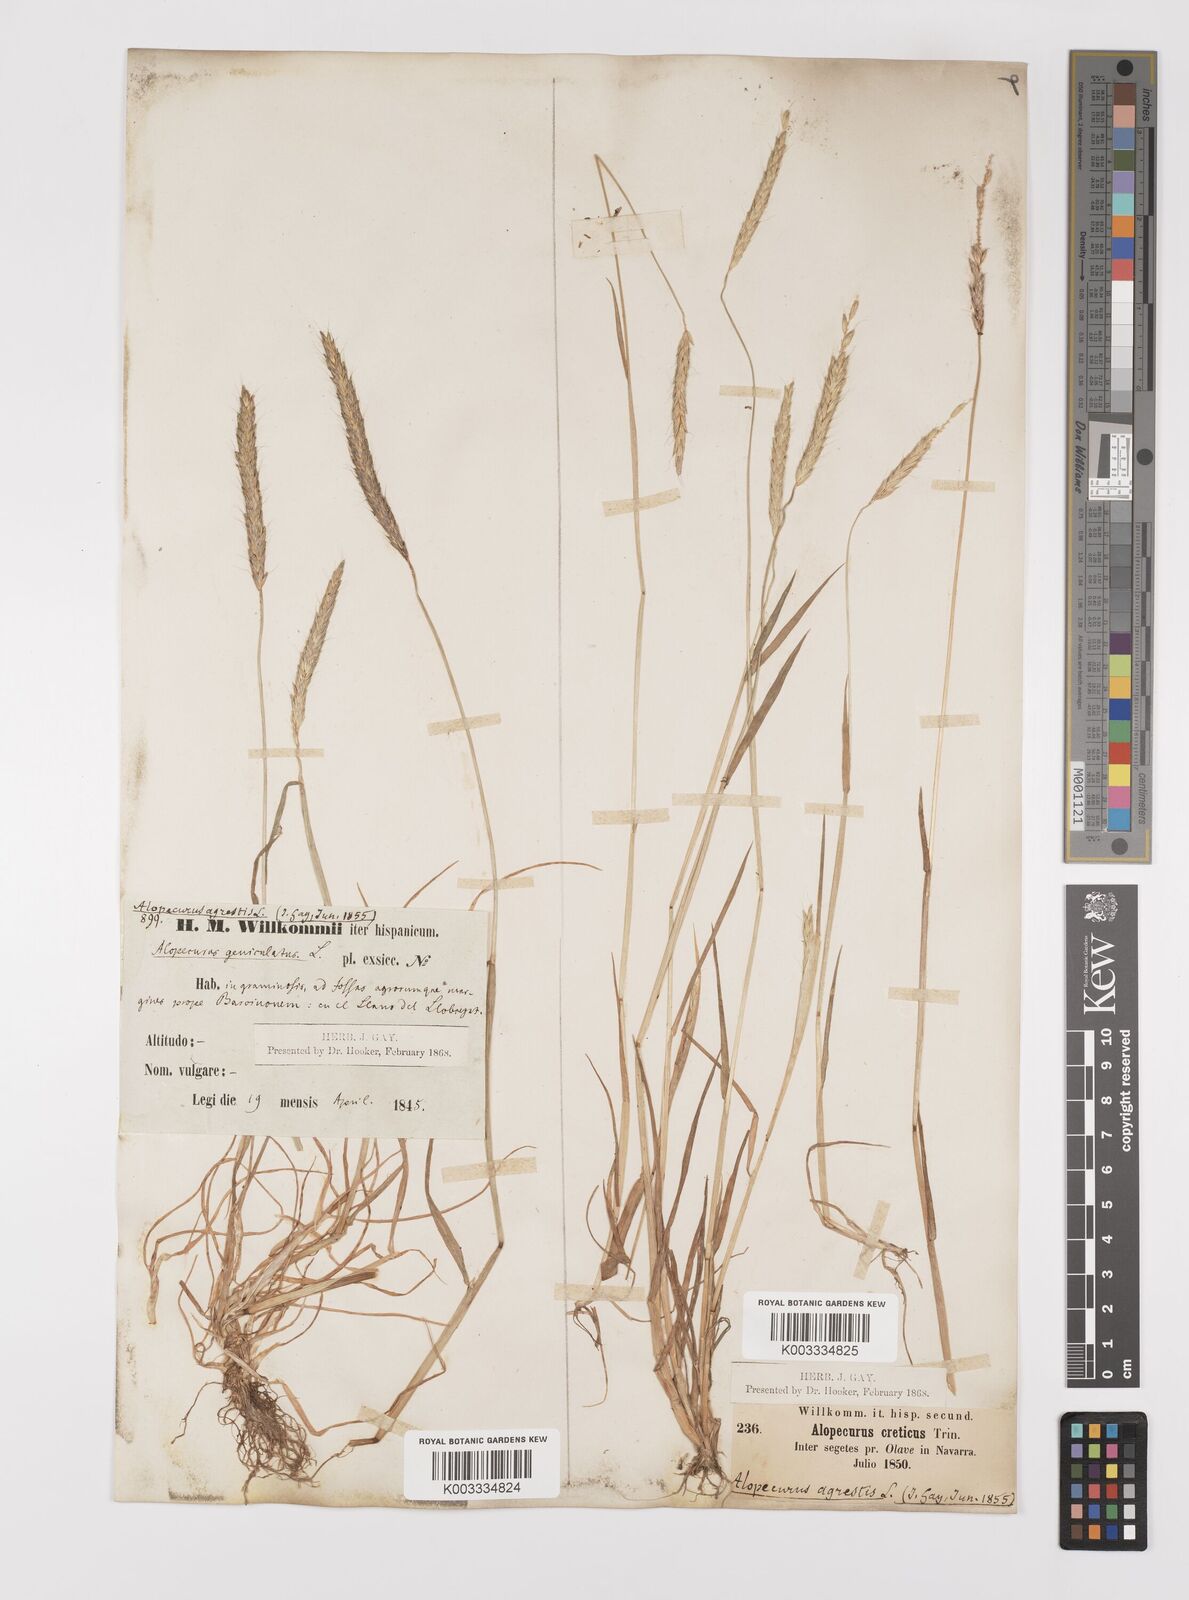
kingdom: Plantae
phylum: Tracheophyta
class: Liliopsida
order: Poales
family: Poaceae
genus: Alopecurus
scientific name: Alopecurus myosuroides
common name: Black-grass
